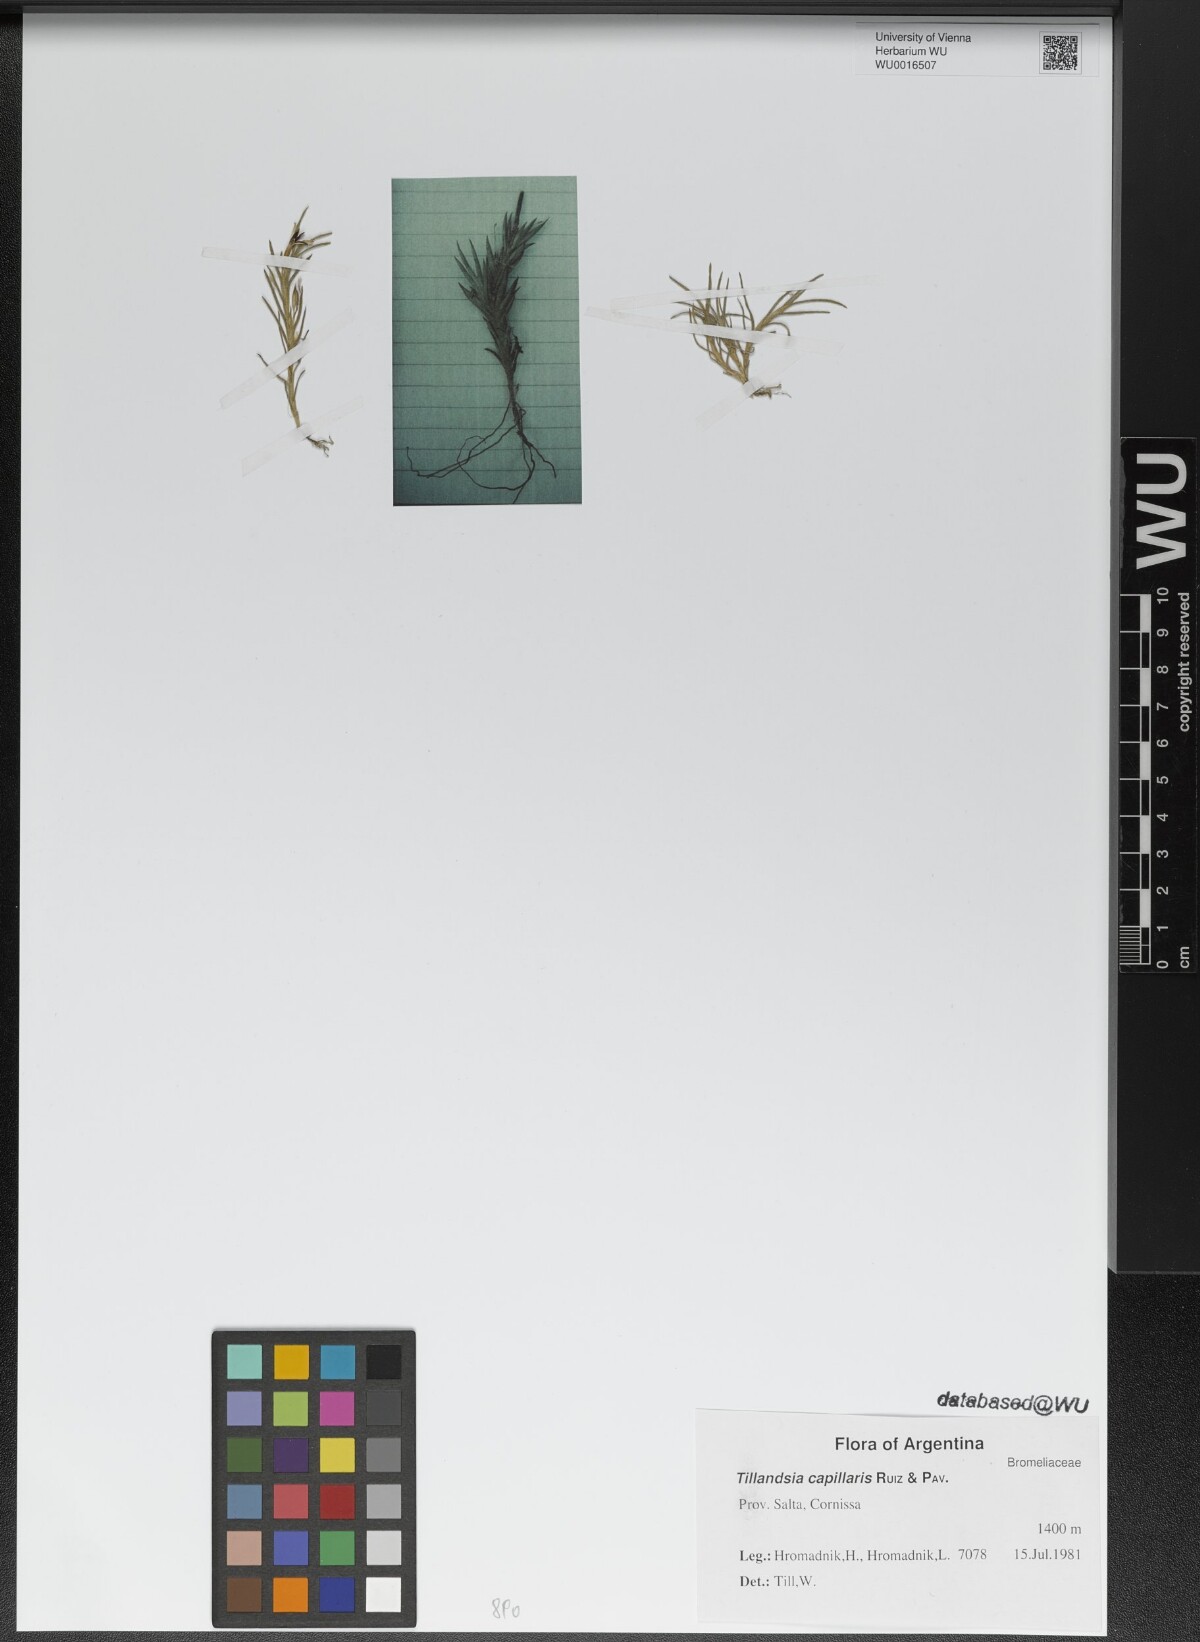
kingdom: Plantae
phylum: Tracheophyta
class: Liliopsida
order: Poales
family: Bromeliaceae
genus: Tillandsia
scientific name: Tillandsia capillaris
